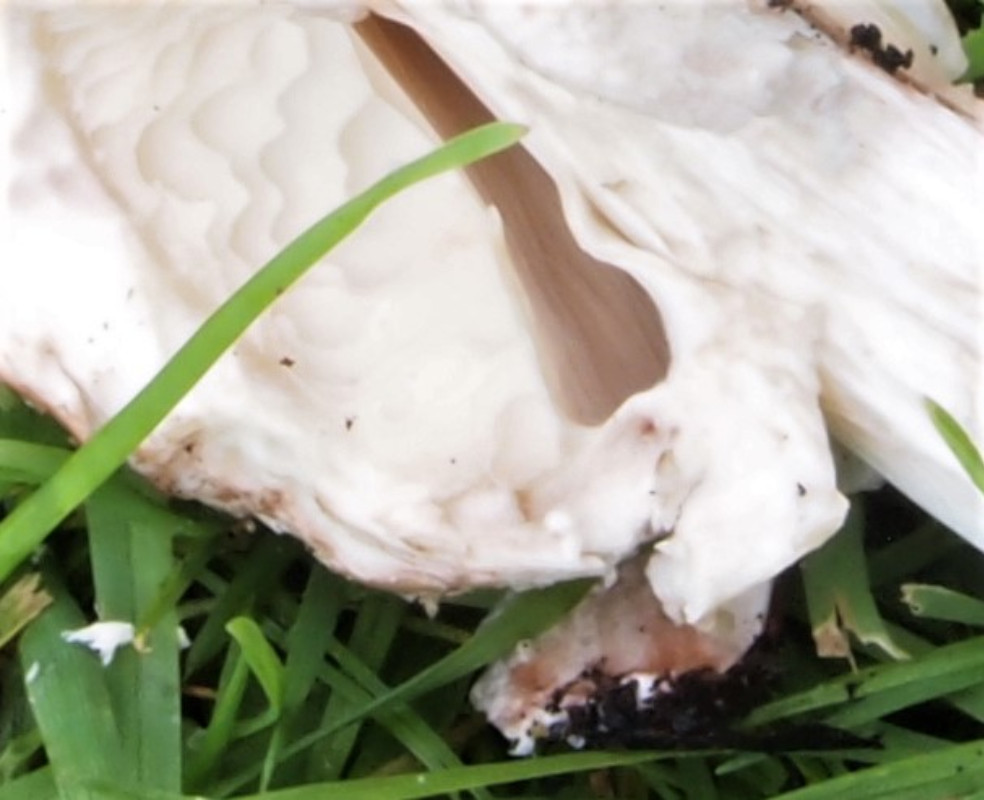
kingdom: Fungi
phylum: Basidiomycota
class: Agaricomycetes
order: Agaricales
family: Agaricaceae
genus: Chlorophyllum
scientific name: Chlorophyllum brunneum
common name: giftig rabarberhat
